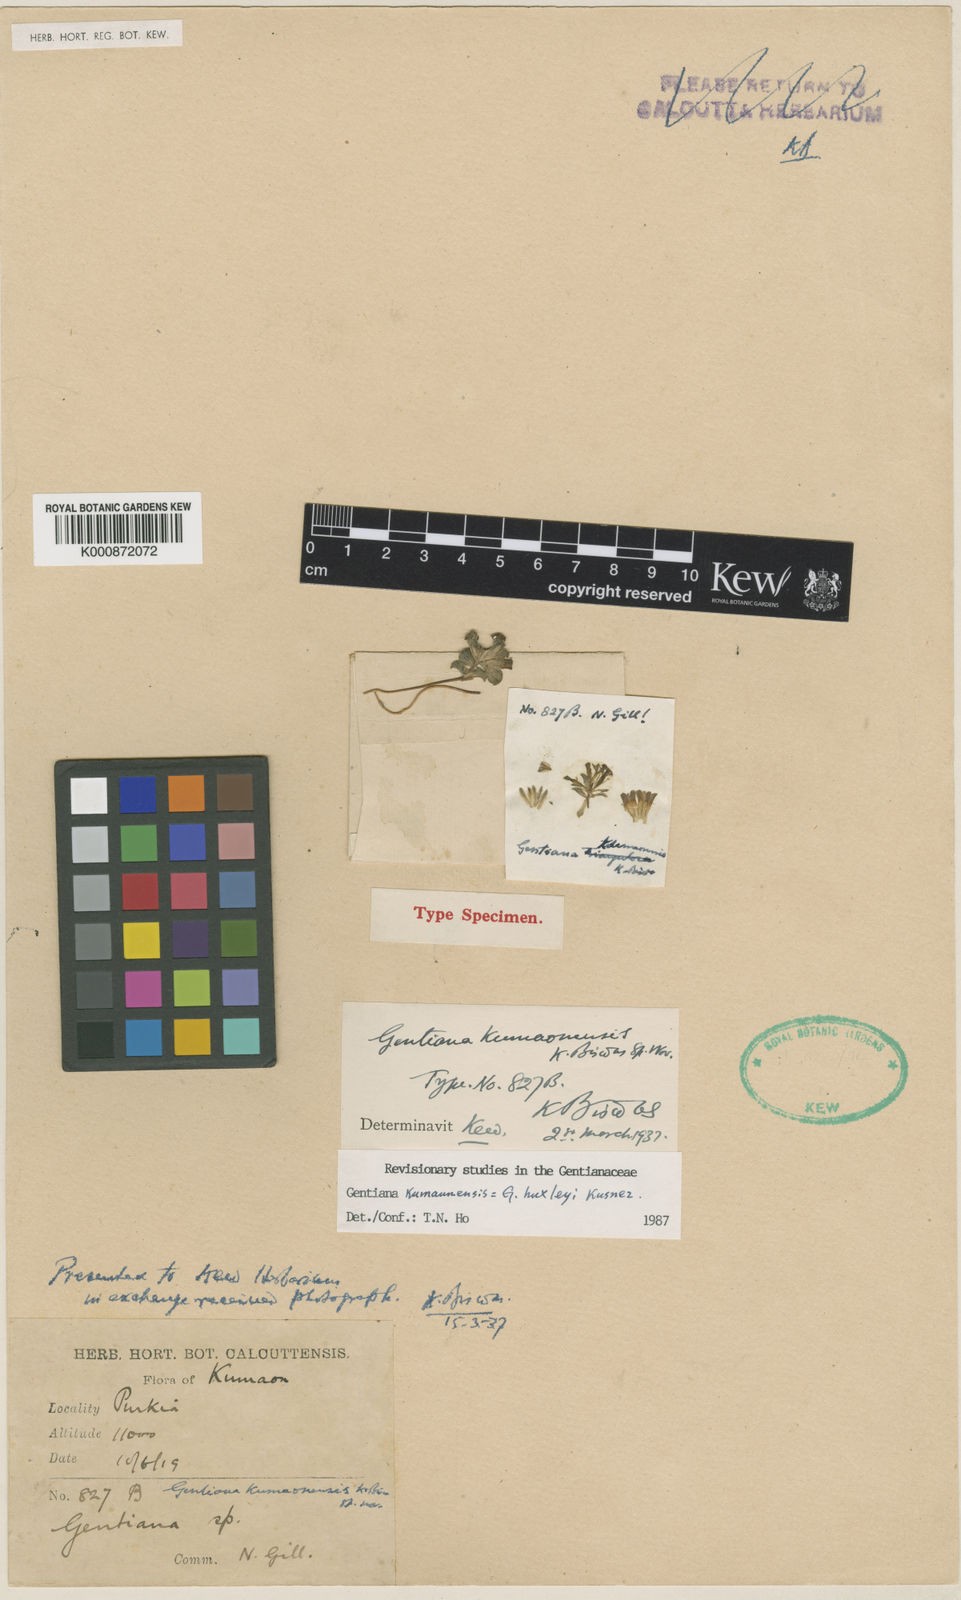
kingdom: Plantae
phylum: Tracheophyta
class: Magnoliopsida
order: Gentianales
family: Gentianaceae
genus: Gentiana
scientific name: Gentiana huxleyi
